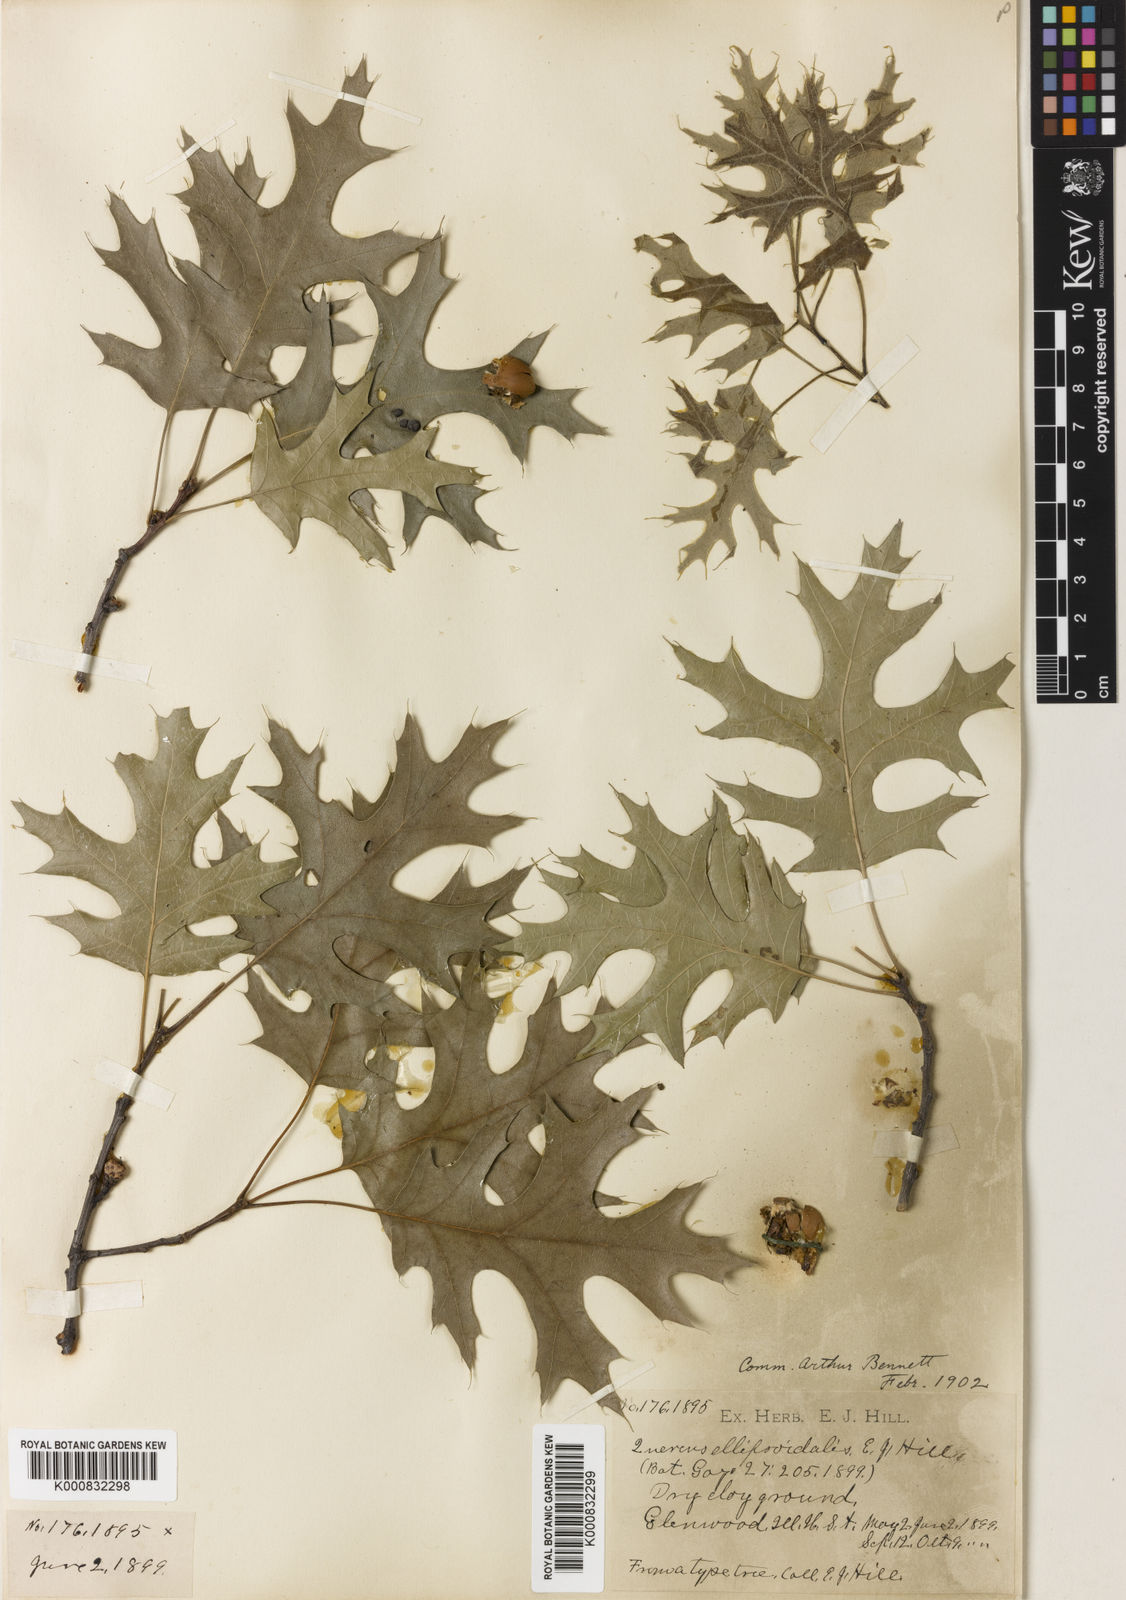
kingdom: Plantae
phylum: Tracheophyta
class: Magnoliopsida
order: Fagales
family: Fagaceae
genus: Quercus
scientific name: Quercus ellipsoidalis
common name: Hill's oak
